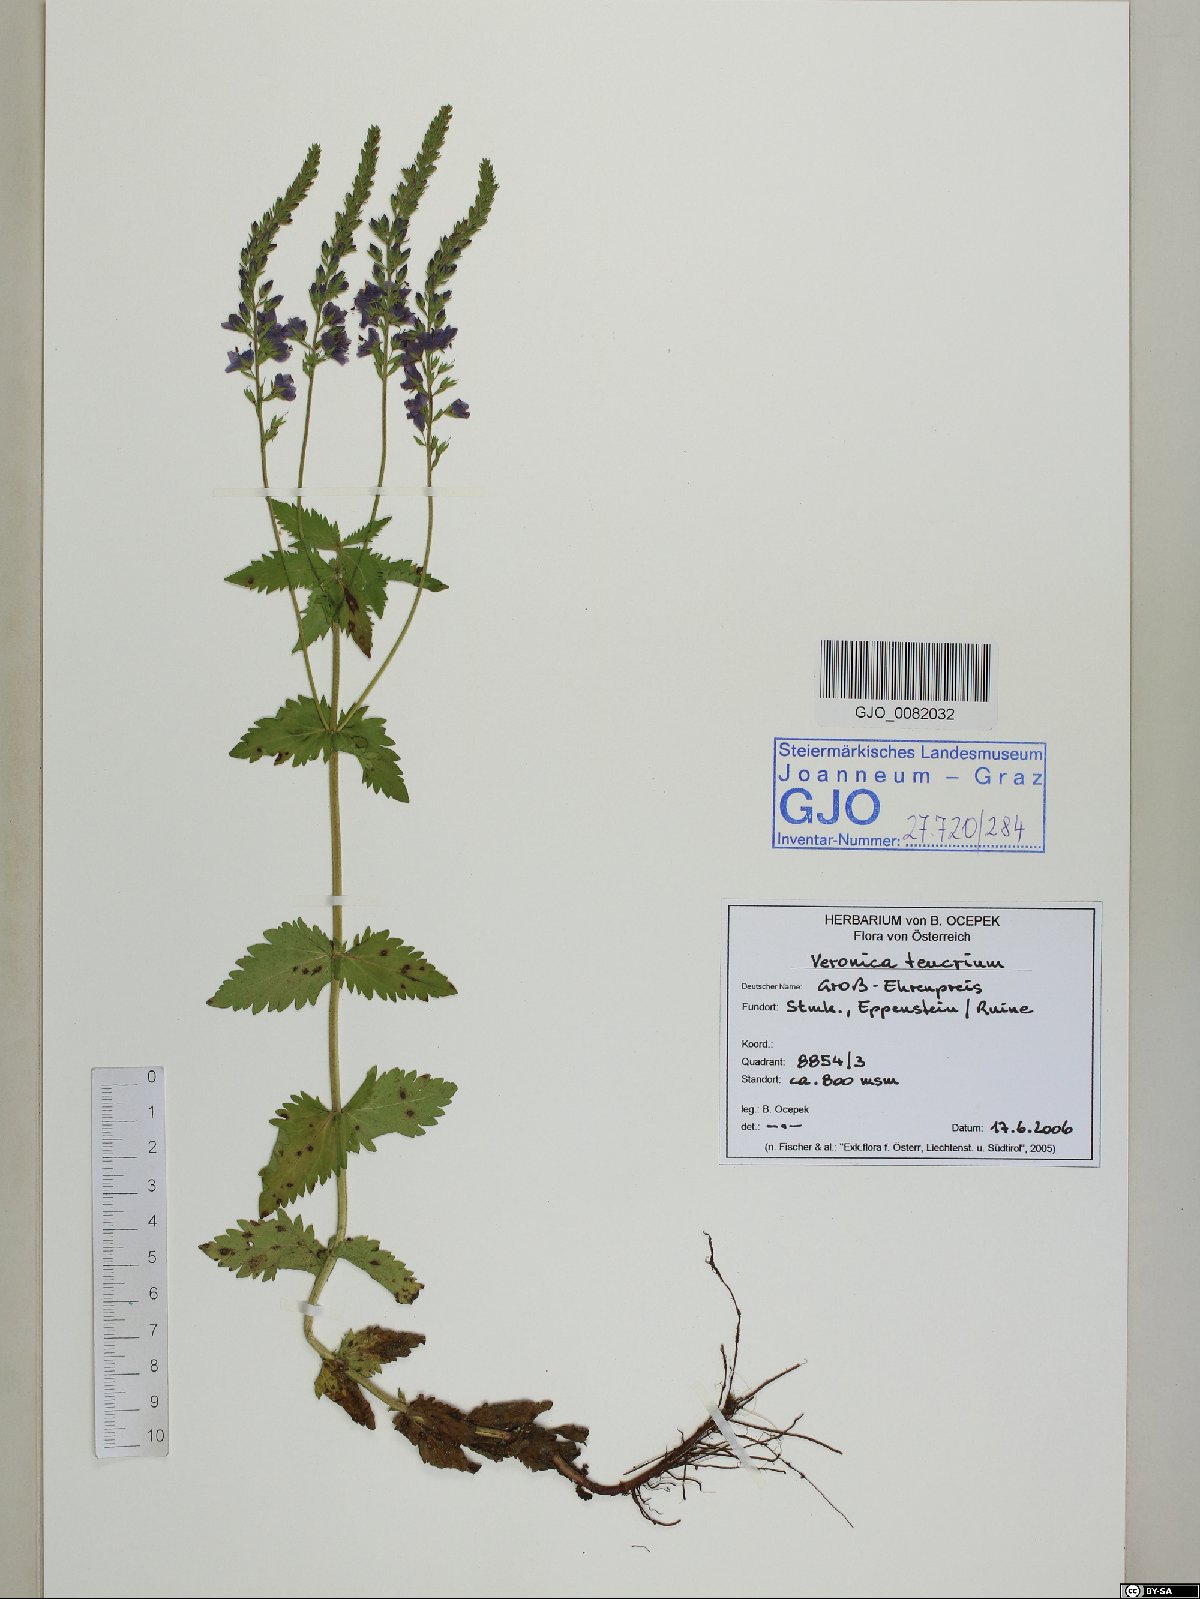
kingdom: Plantae
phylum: Tracheophyta
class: Magnoliopsida
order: Lamiales
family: Plantaginaceae
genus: Veronica
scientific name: Veronica teucrium
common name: Large speedwell
